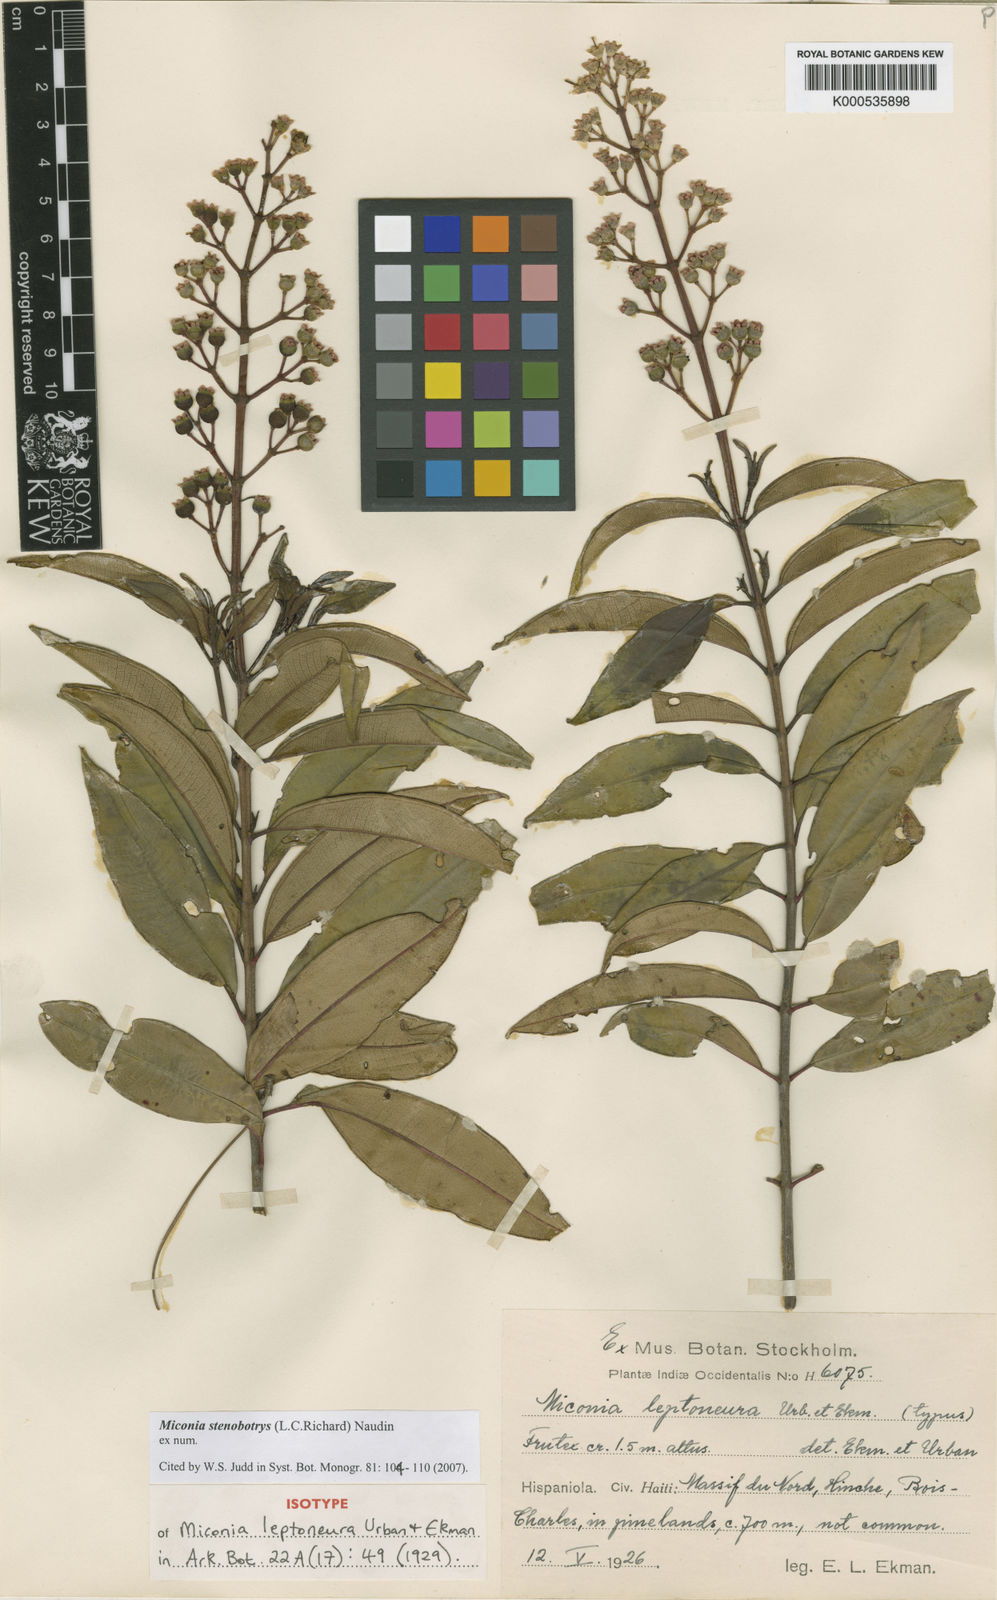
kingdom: Plantae
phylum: Tracheophyta
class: Magnoliopsida
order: Myrtales
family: Melastomataceae
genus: Miconia
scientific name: Miconia stenobotrys
